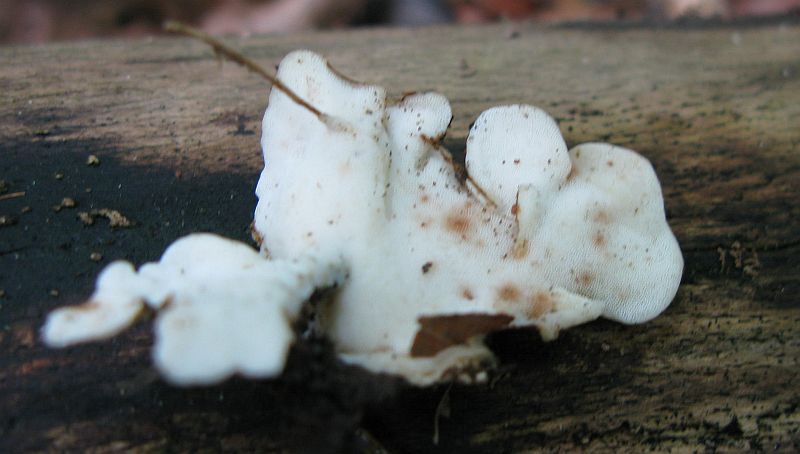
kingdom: Fungi
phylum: Basidiomycota
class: Agaricomycetes
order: Polyporales
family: Steccherinaceae
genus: Antrodiella
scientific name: Antrodiella faginea
